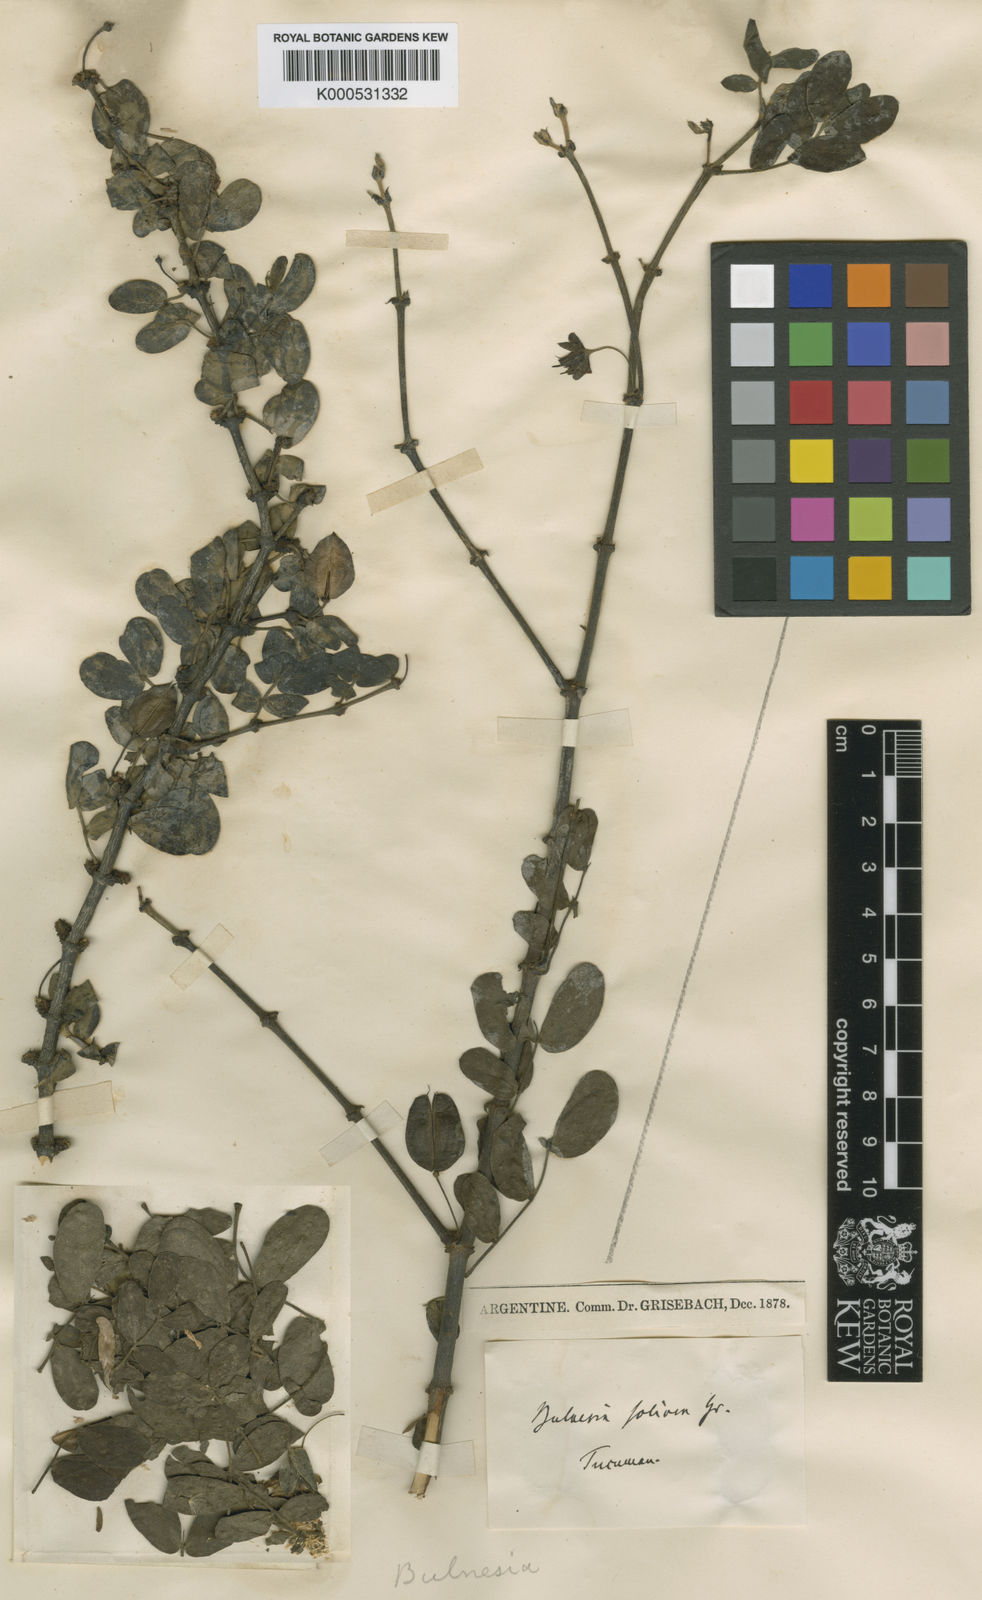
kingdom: Plantae
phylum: Tracheophyta
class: Magnoliopsida
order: Zygophyllales
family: Zygophyllaceae
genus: Bulnesia
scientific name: Bulnesia foliosa
